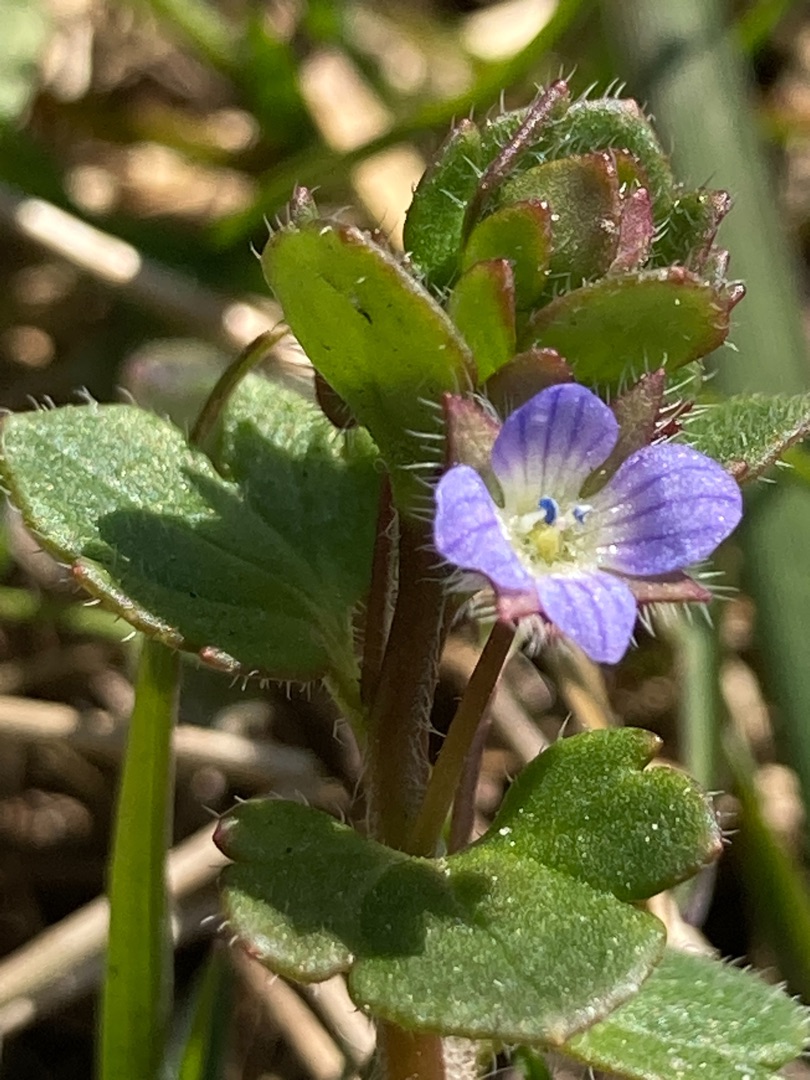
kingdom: Plantae
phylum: Tracheophyta
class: Magnoliopsida
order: Lamiales
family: Plantaginaceae
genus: Veronica
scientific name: Veronica hederifolia
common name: Vedbend-ærenpris
